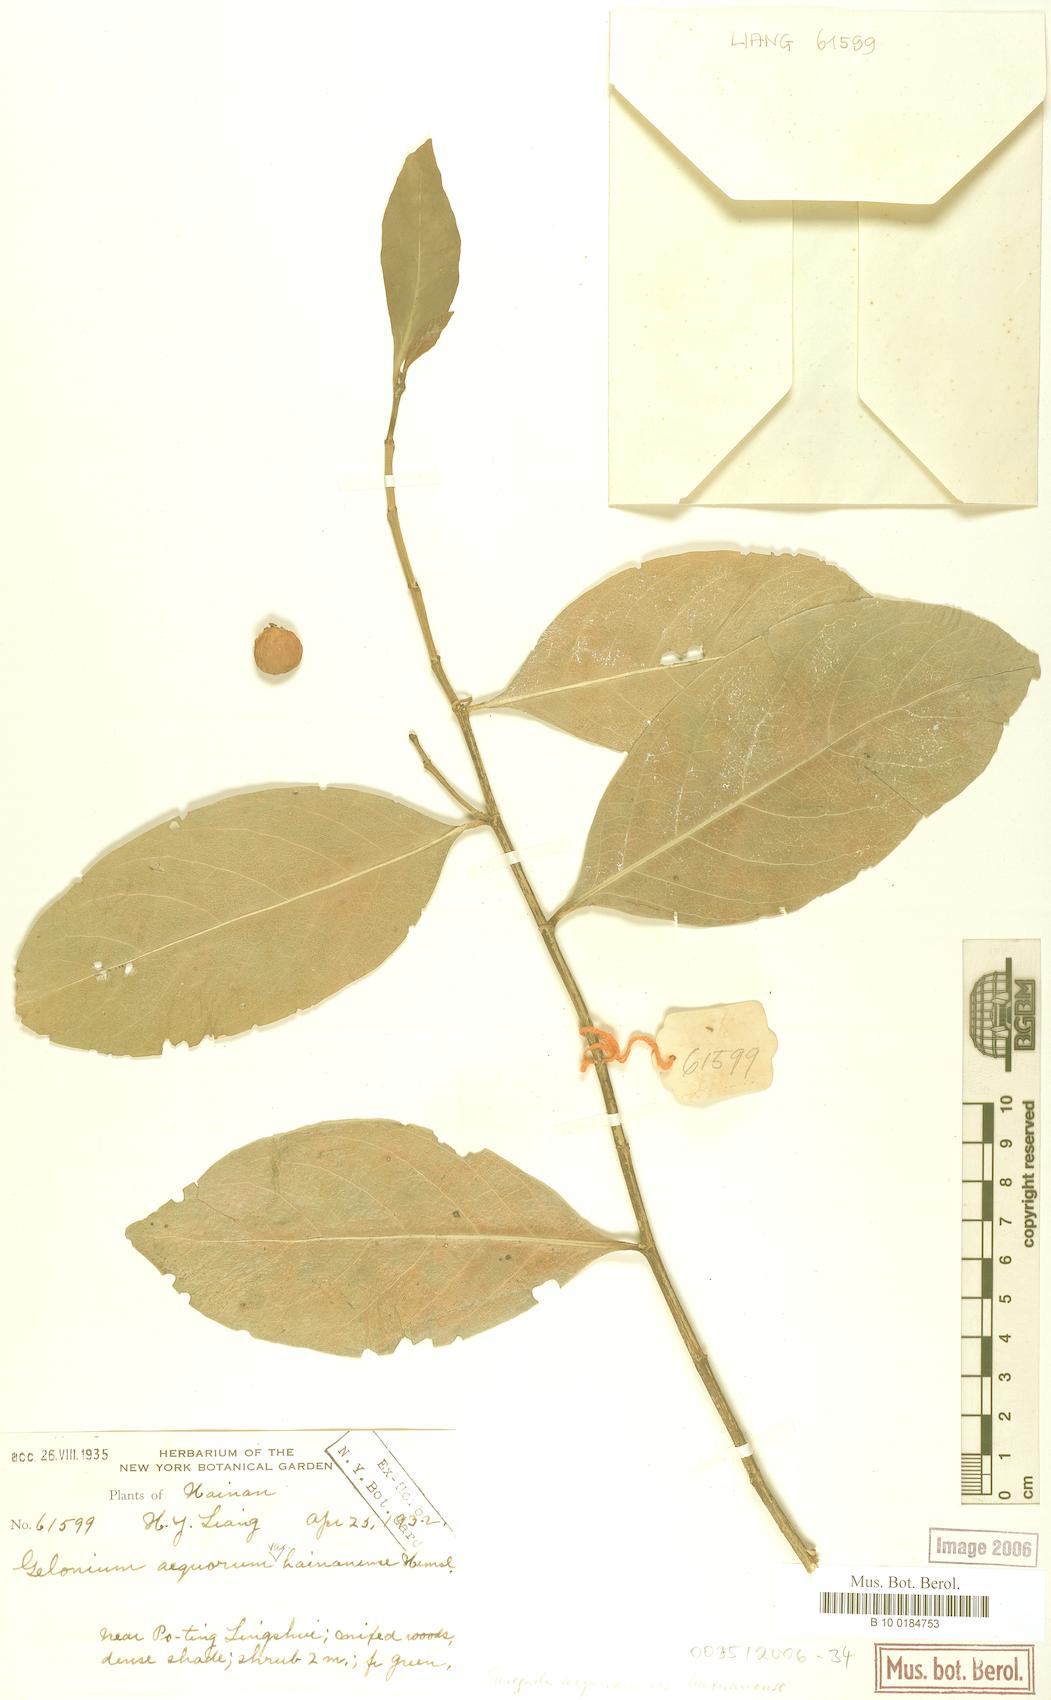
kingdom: Plantae
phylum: Tracheophyta
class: Magnoliopsida
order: Malpighiales
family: Euphorbiaceae
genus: Suregada
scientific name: Suregada multiflora
